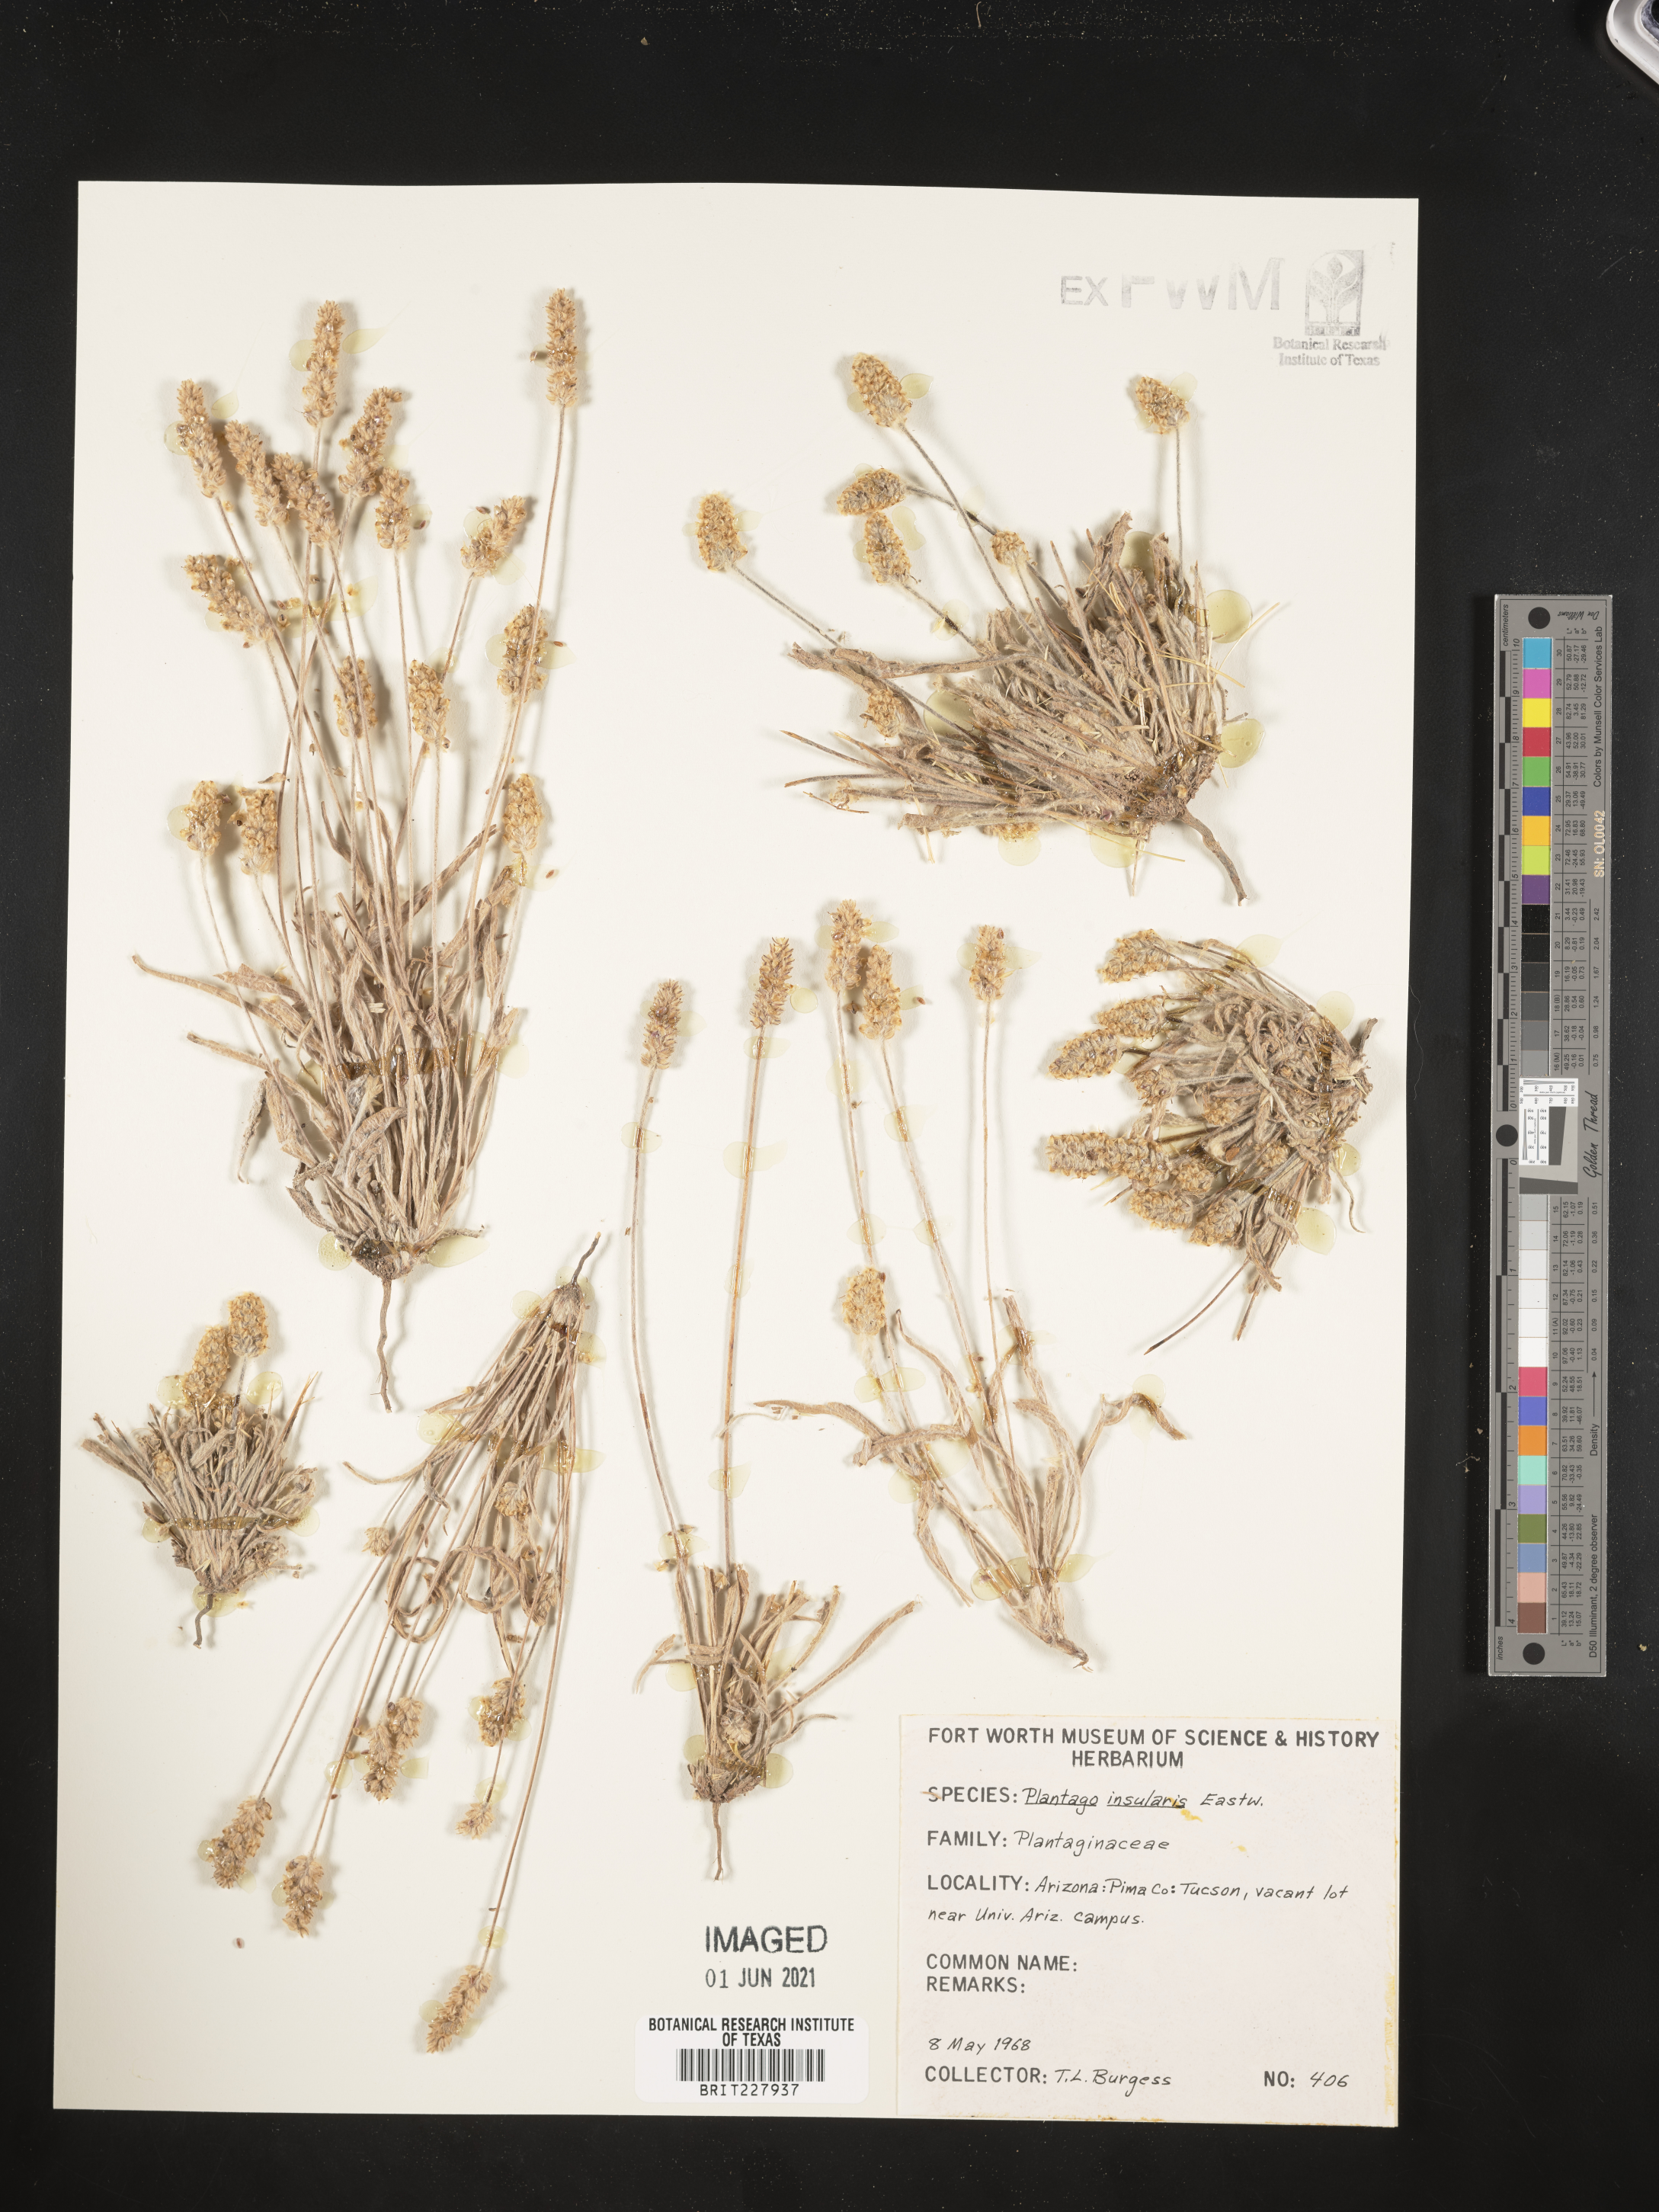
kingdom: Plantae
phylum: Tracheophyta
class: Magnoliopsida
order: Lamiales
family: Plantaginaceae
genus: Plantago
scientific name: Plantago ovata
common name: Blond plantain
